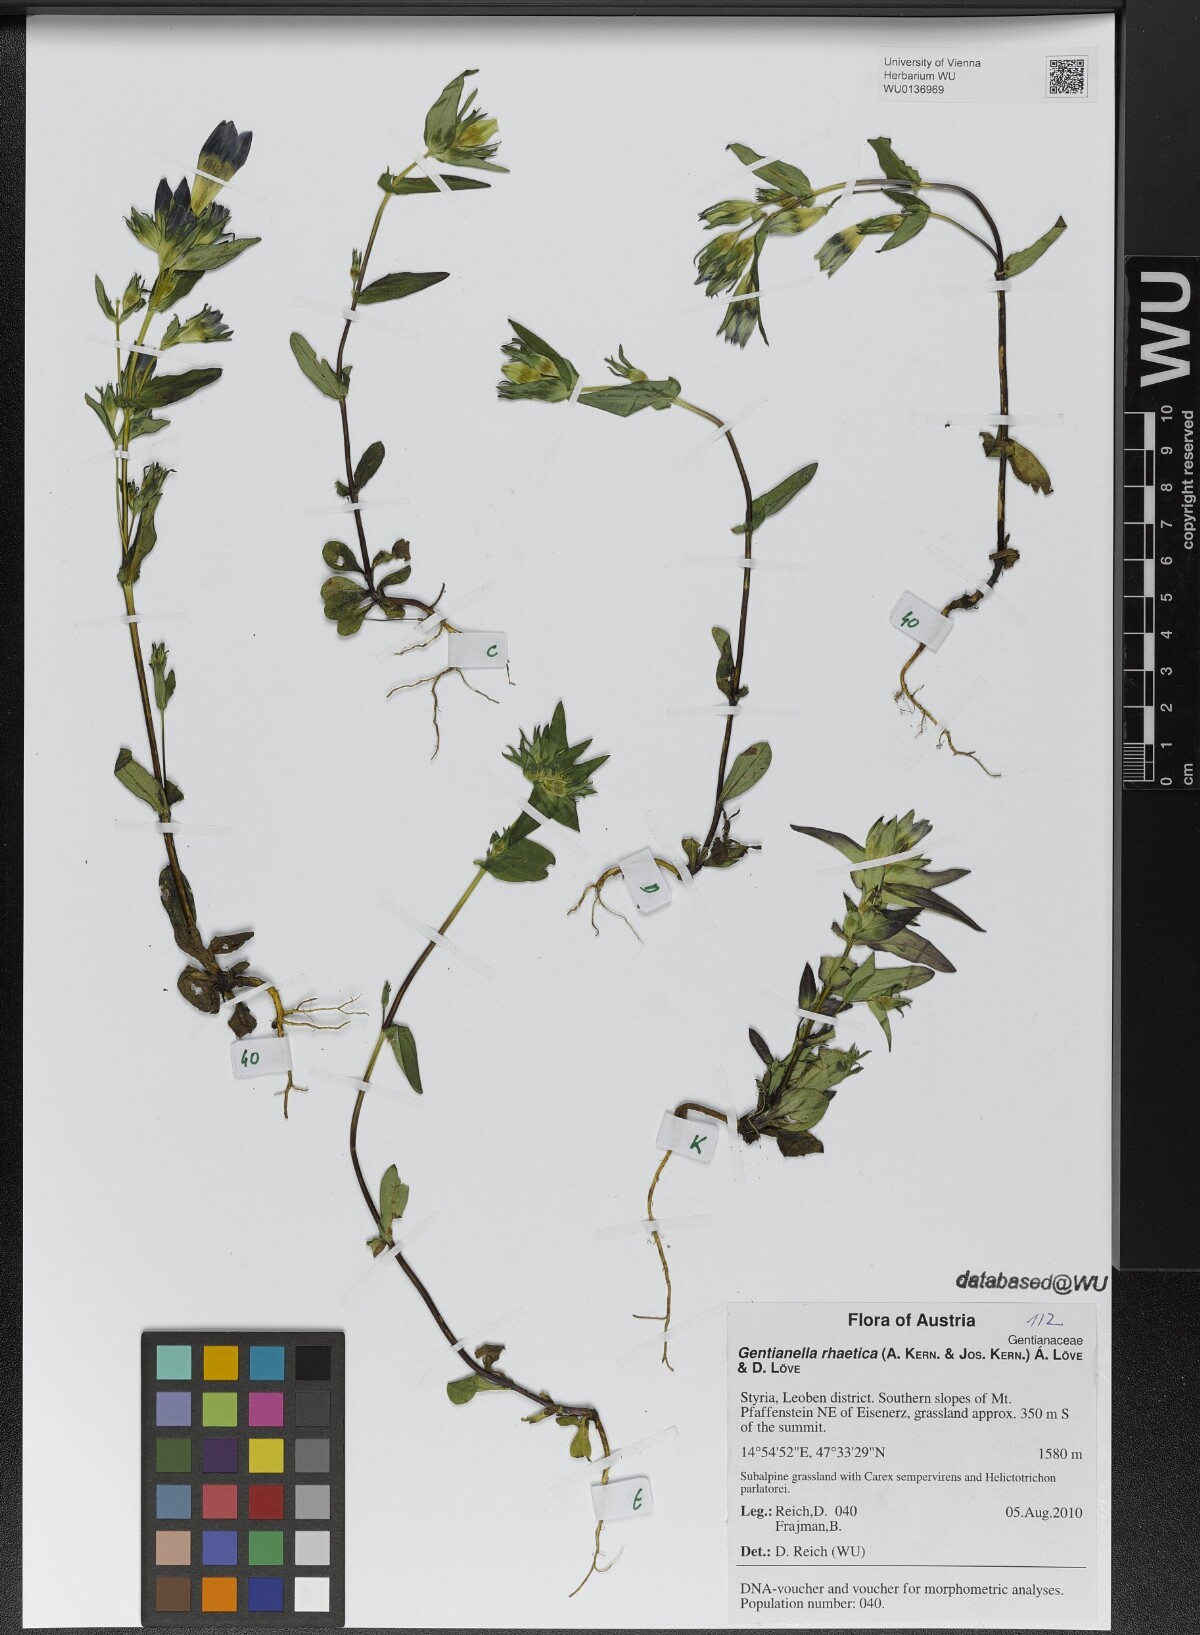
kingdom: Plantae
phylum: Tracheophyta
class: Magnoliopsida
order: Gentianales
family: Gentianaceae
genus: Gentianella
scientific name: Gentianella rhaetica
